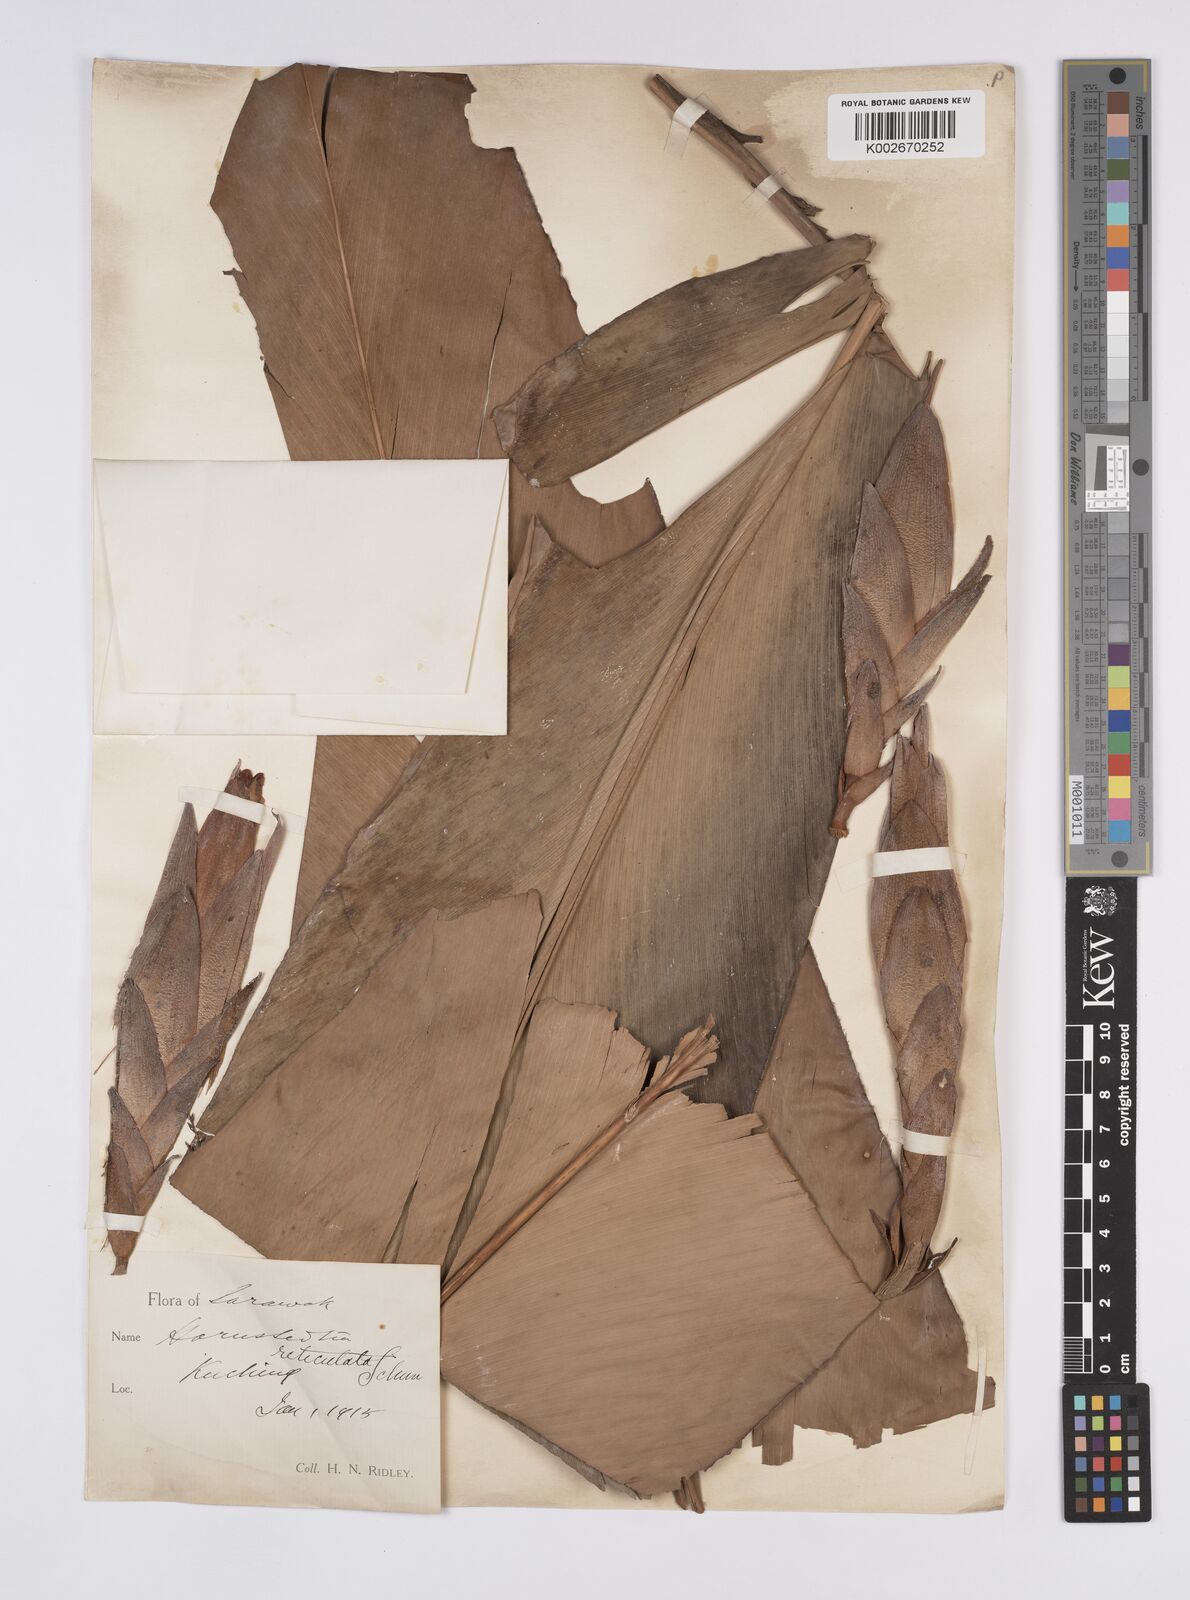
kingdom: Plantae
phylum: Tracheophyta
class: Liliopsida
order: Zingiberales
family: Zingiberaceae
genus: Hornstedtia
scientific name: Hornstedtia reticulata
